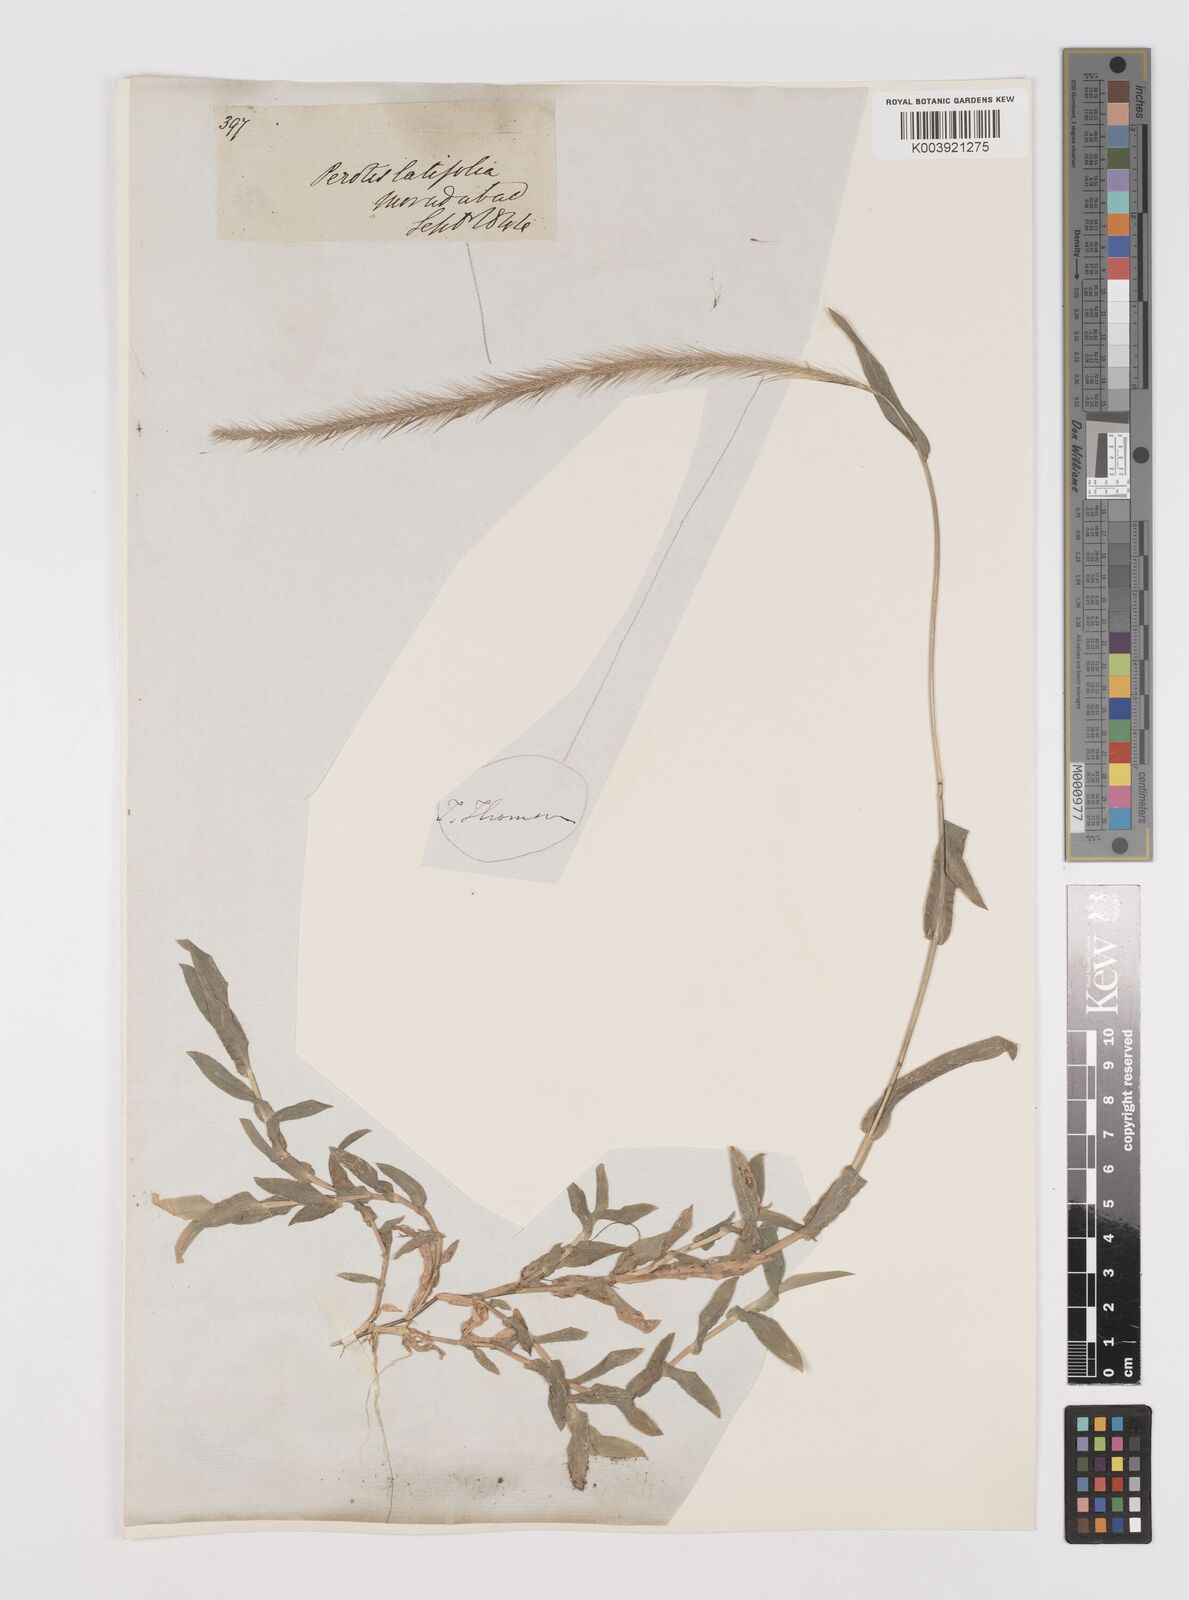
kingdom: Plantae
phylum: Tracheophyta
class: Liliopsida
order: Poales
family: Poaceae
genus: Perotis
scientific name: Perotis hordeiformis
